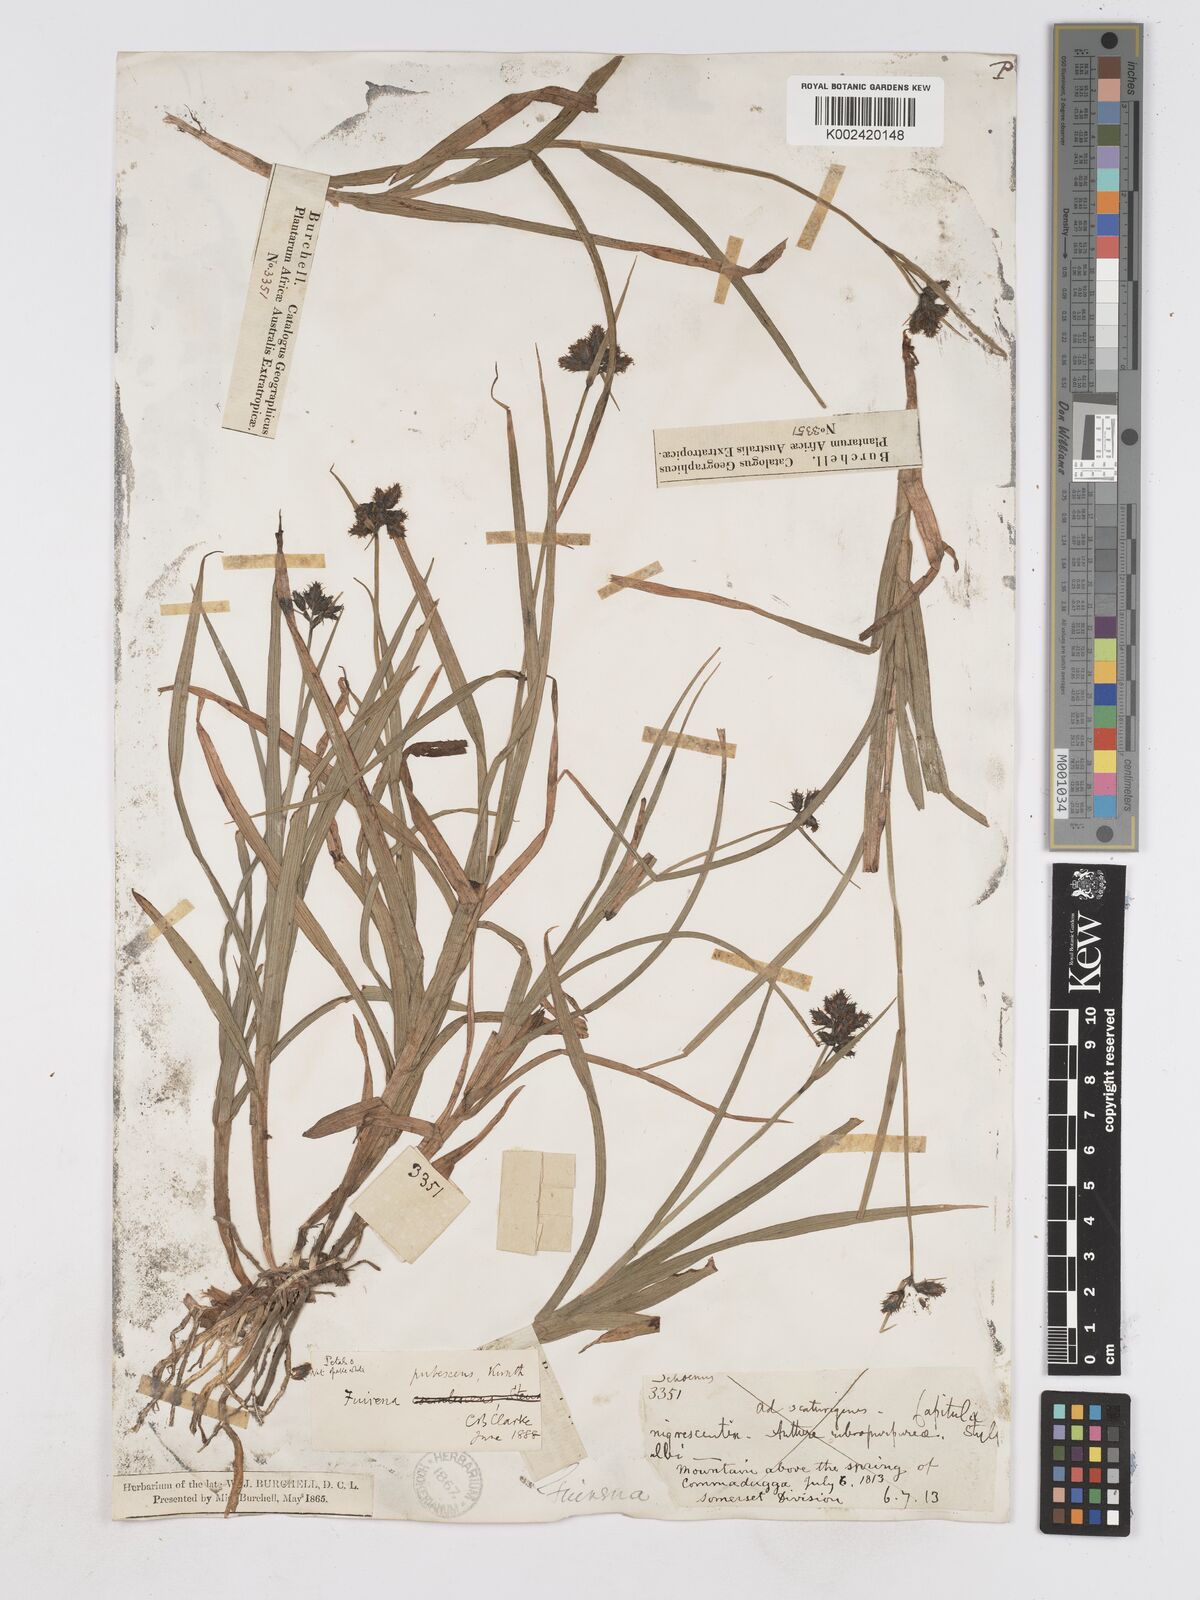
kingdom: Plantae
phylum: Tracheophyta
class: Liliopsida
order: Poales
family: Cyperaceae
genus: Fuirena
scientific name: Fuirena pubescens
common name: Hairy sedge
